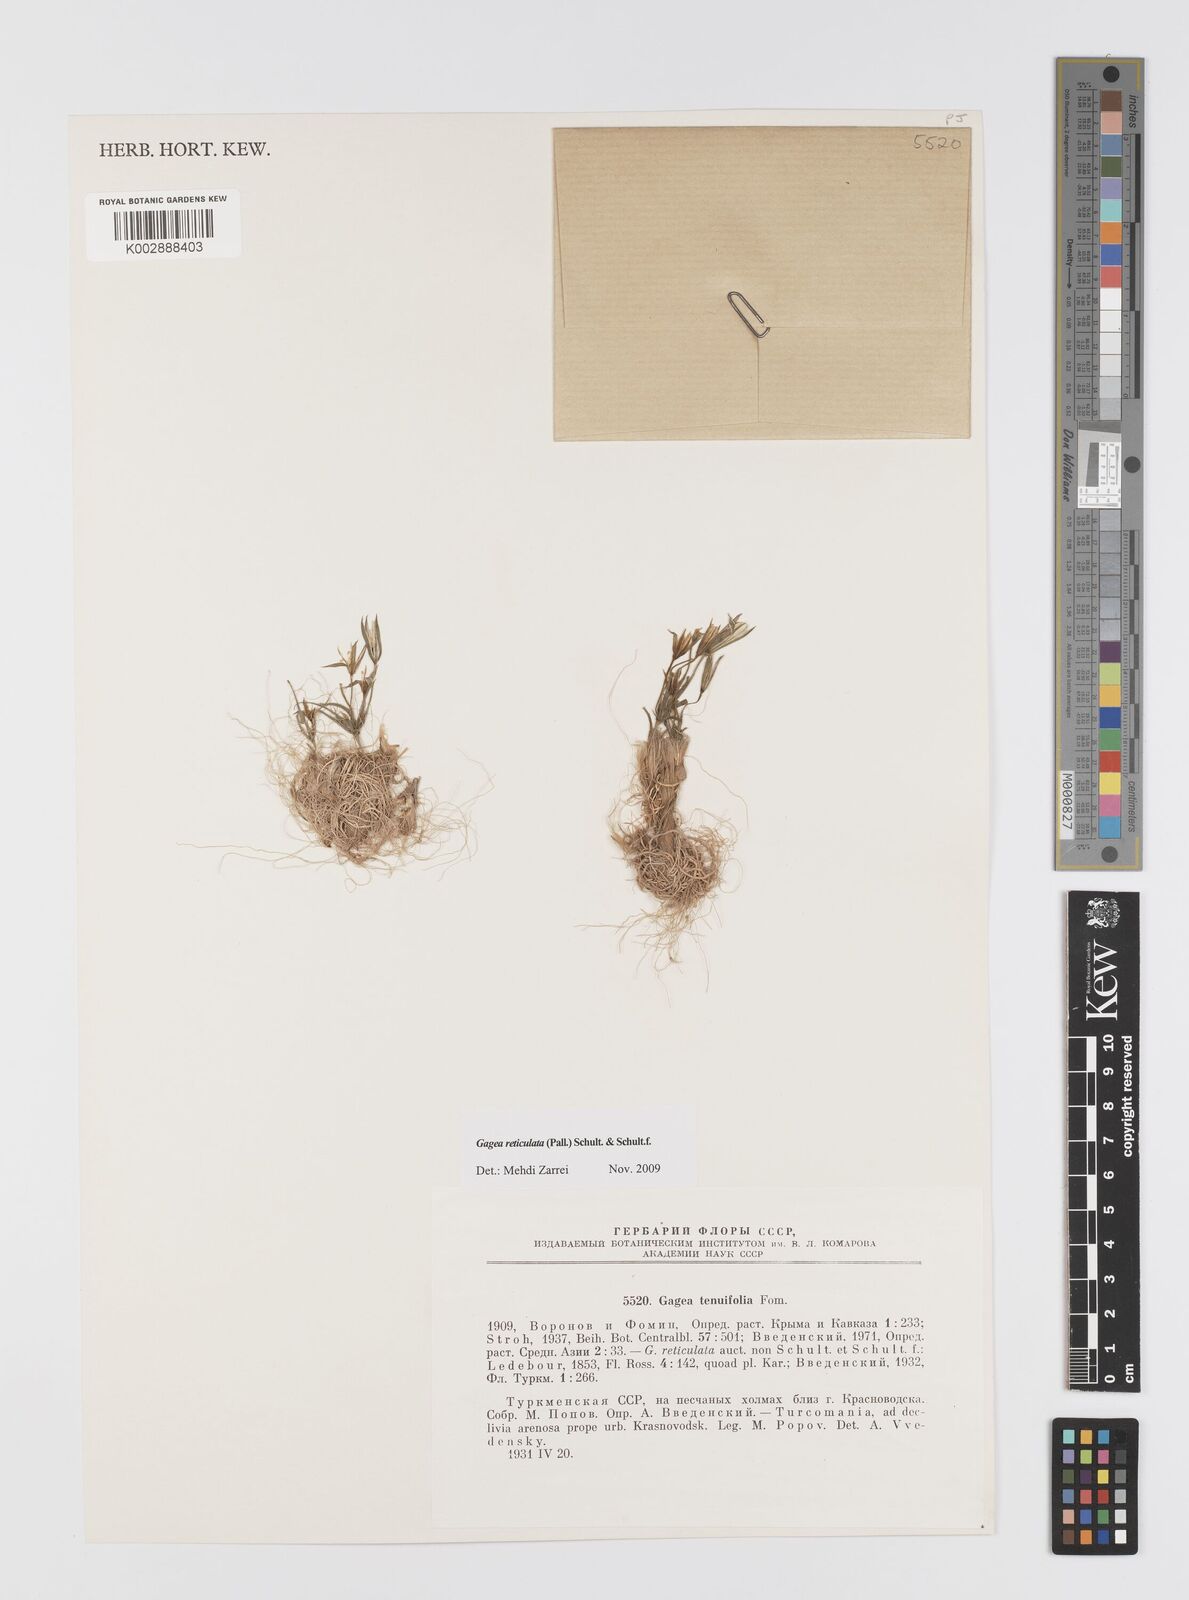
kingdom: Plantae
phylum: Tracheophyta
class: Liliopsida
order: Liliales
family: Liliaceae
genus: Gagea
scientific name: Gagea reticulata
